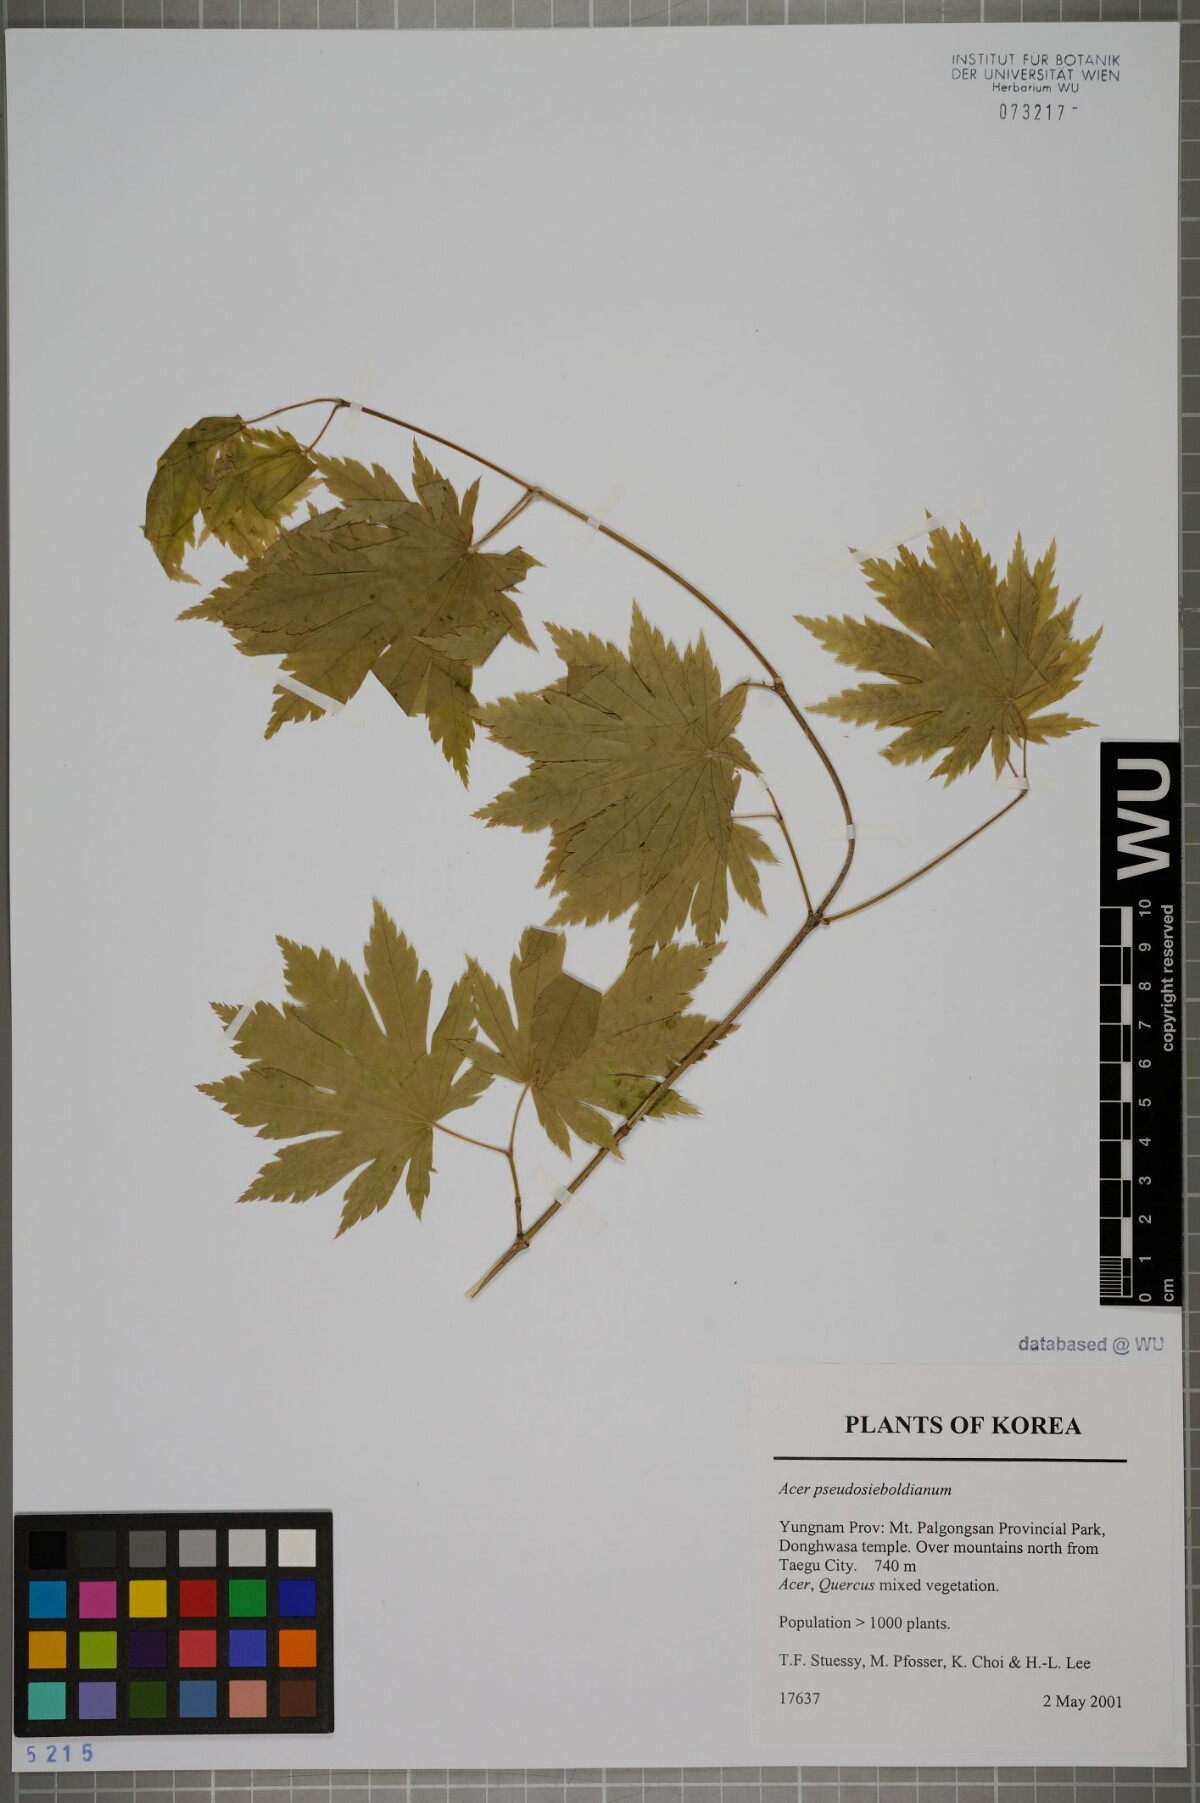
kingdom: Plantae
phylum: Tracheophyta
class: Magnoliopsida
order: Sapindales
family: Sapindaceae
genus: Acer
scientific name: Acer pseudosieboldianum
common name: Korean maple
